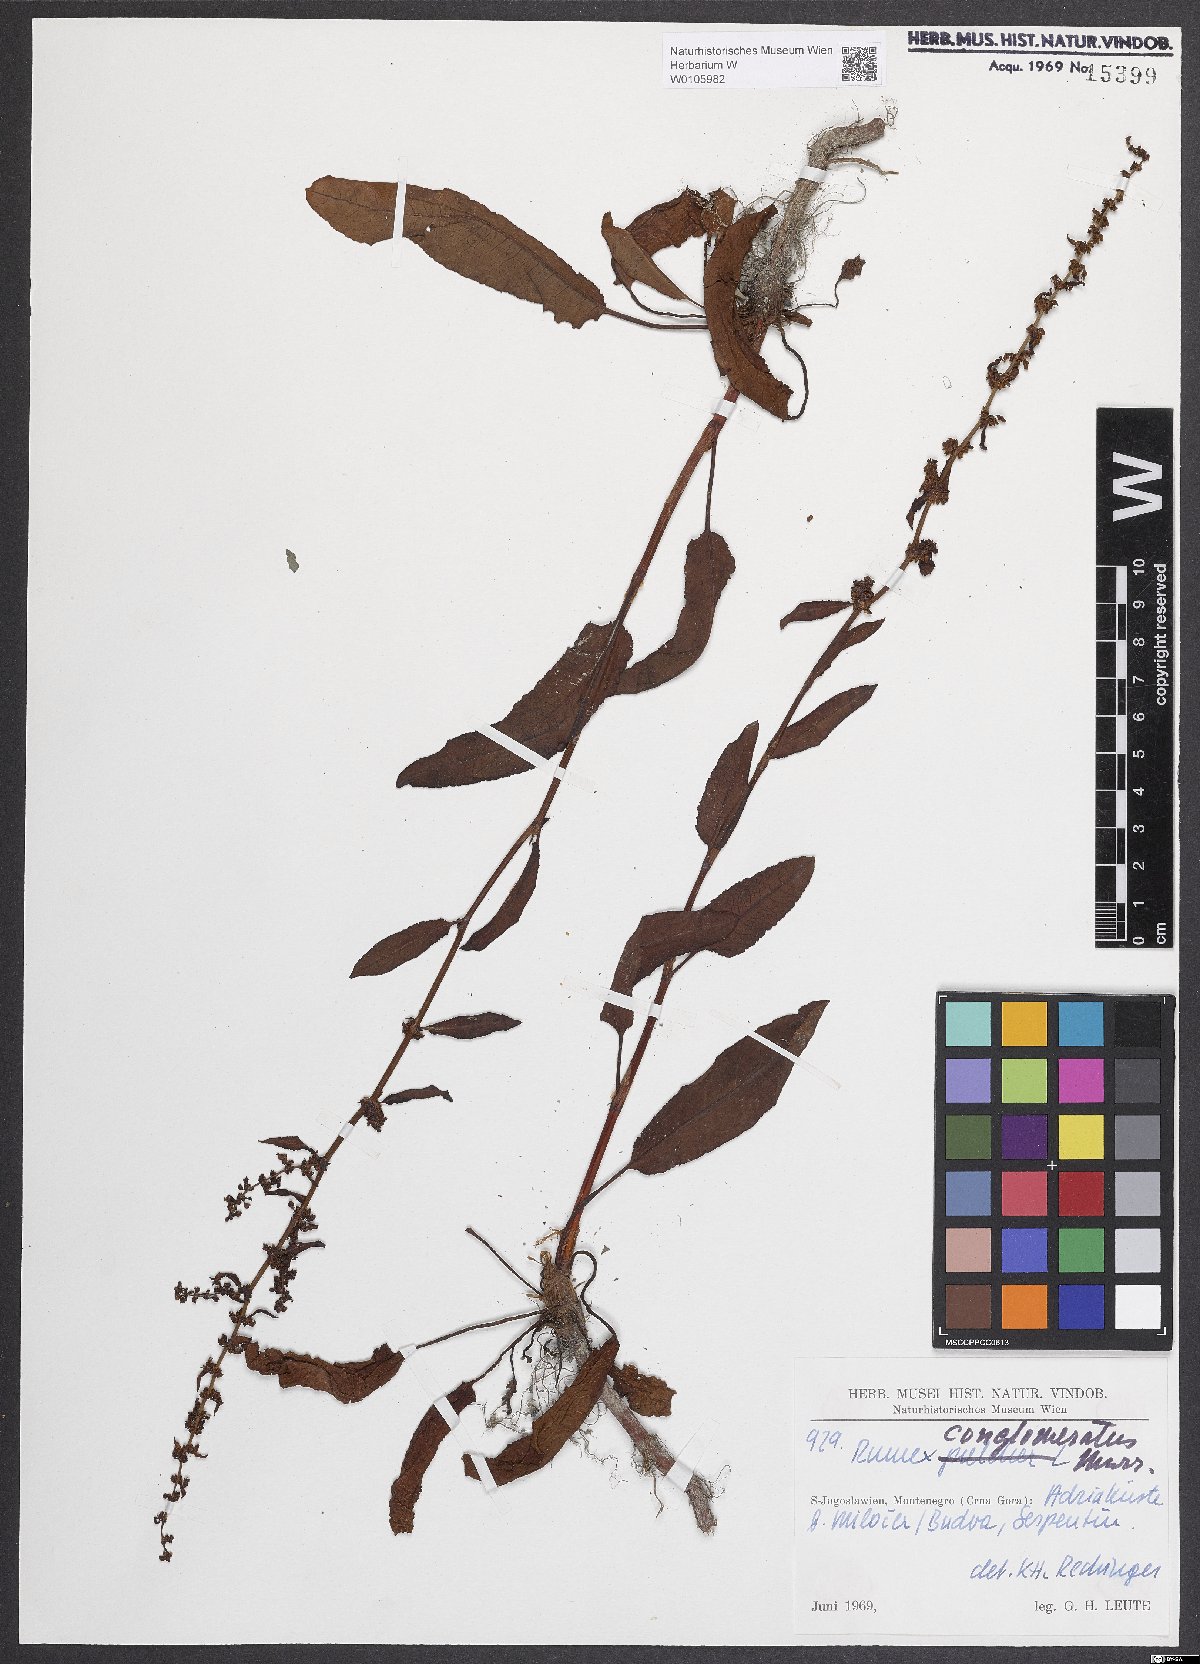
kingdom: Plantae
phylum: Tracheophyta
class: Magnoliopsida
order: Caryophyllales
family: Polygonaceae
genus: Rumex
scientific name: Rumex conglomeratus
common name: Clustered dock
